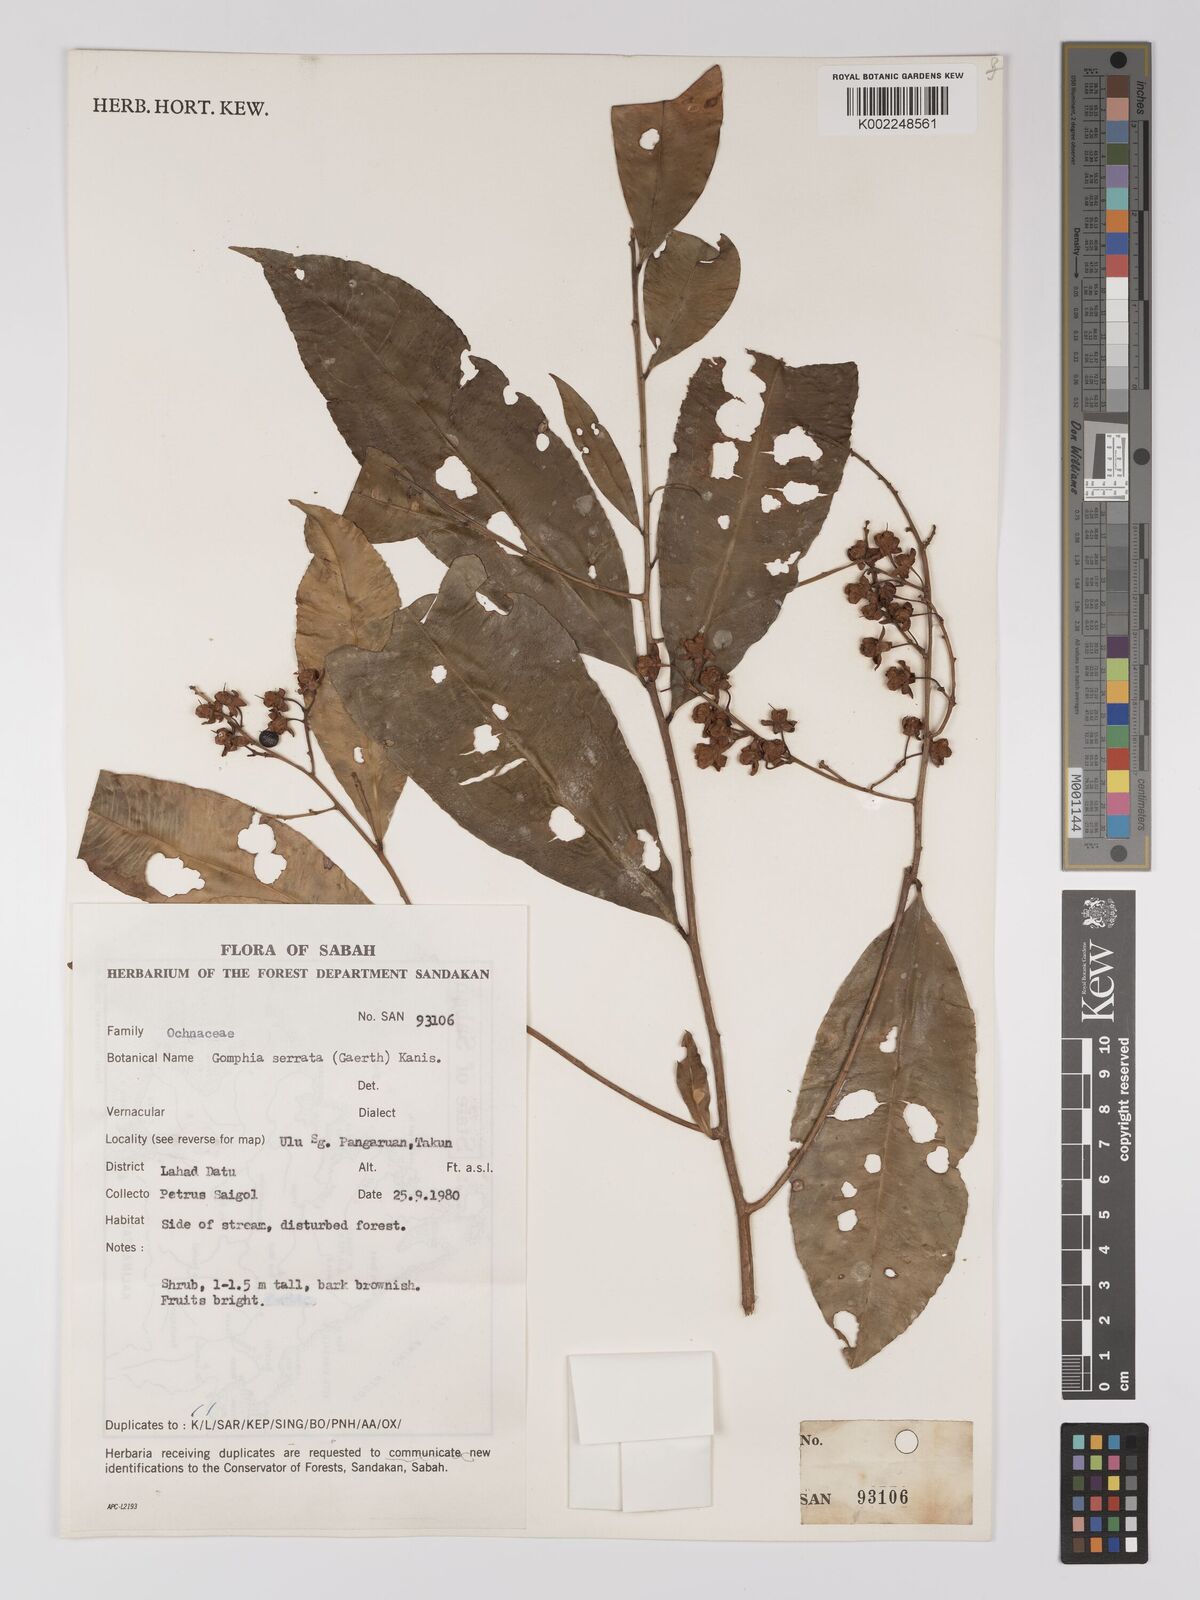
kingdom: Plantae
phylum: Tracheophyta
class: Magnoliopsida
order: Malpighiales
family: Ochnaceae
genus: Gomphia
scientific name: Gomphia serrata
